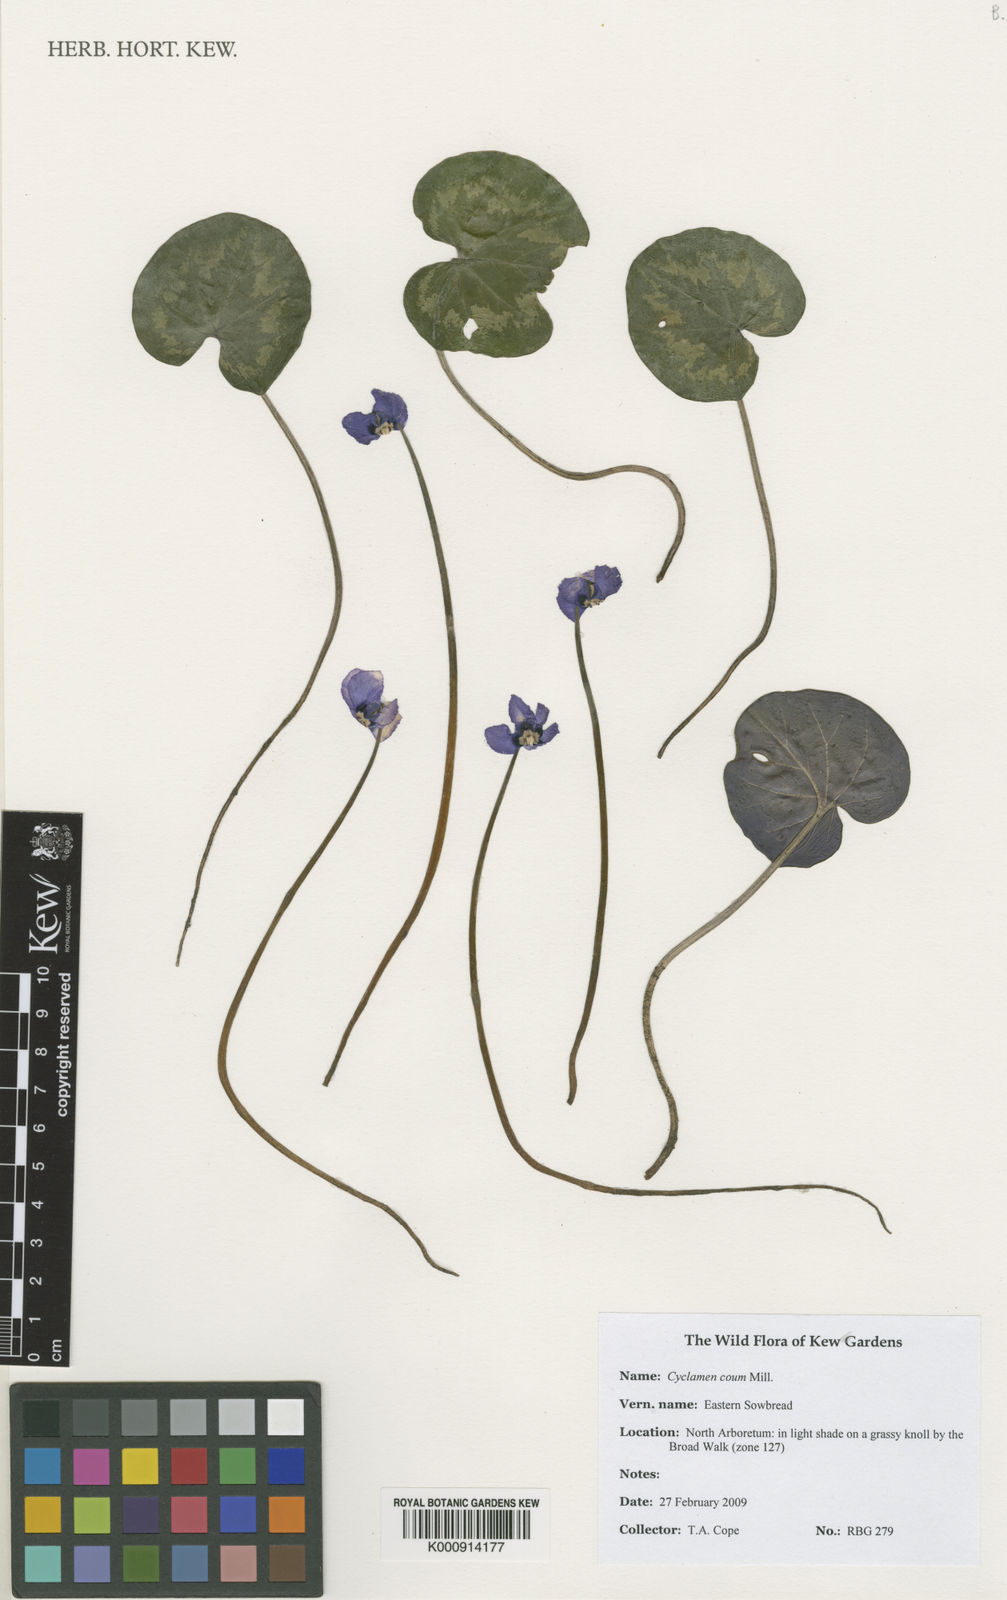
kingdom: Plantae
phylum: Tracheophyta
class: Magnoliopsida
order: Ericales
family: Primulaceae
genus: Cyclamen
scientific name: Cyclamen coum
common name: Eastern sowbread
